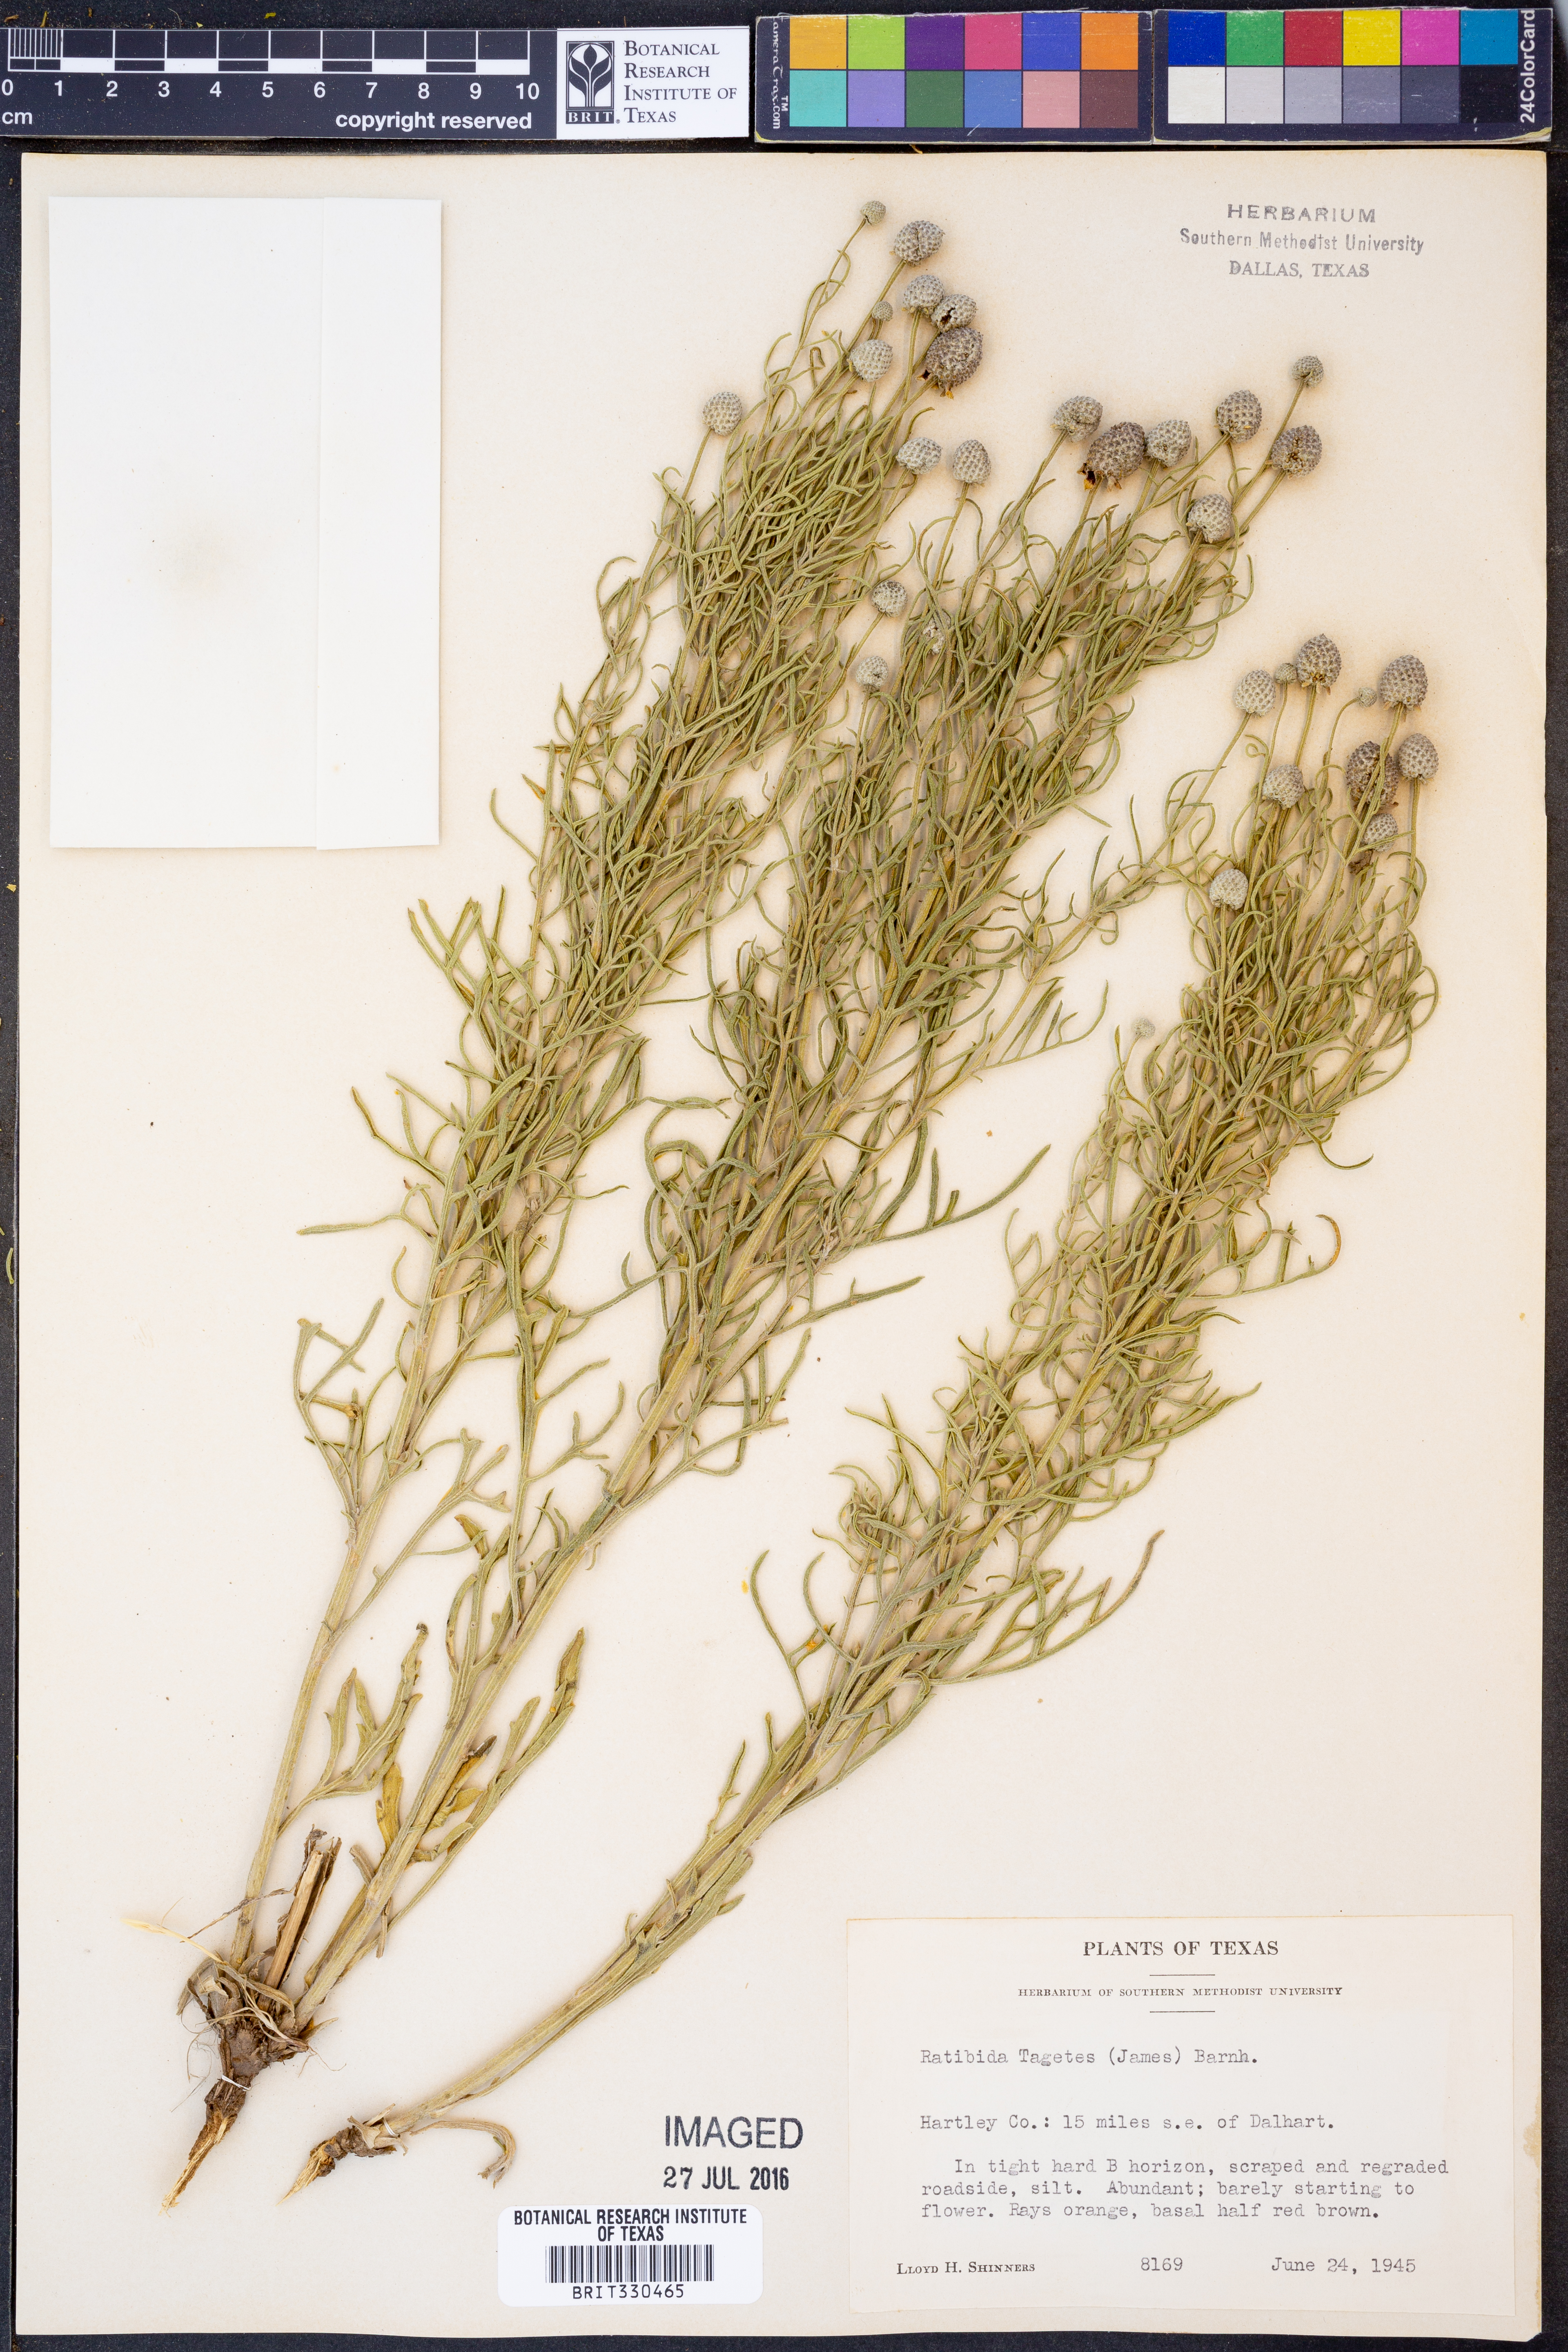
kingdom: Plantae
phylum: Tracheophyta
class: Magnoliopsida
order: Asterales
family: Asteraceae
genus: Ratibida
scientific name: Ratibida tagetes
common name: Green mexican-hat
